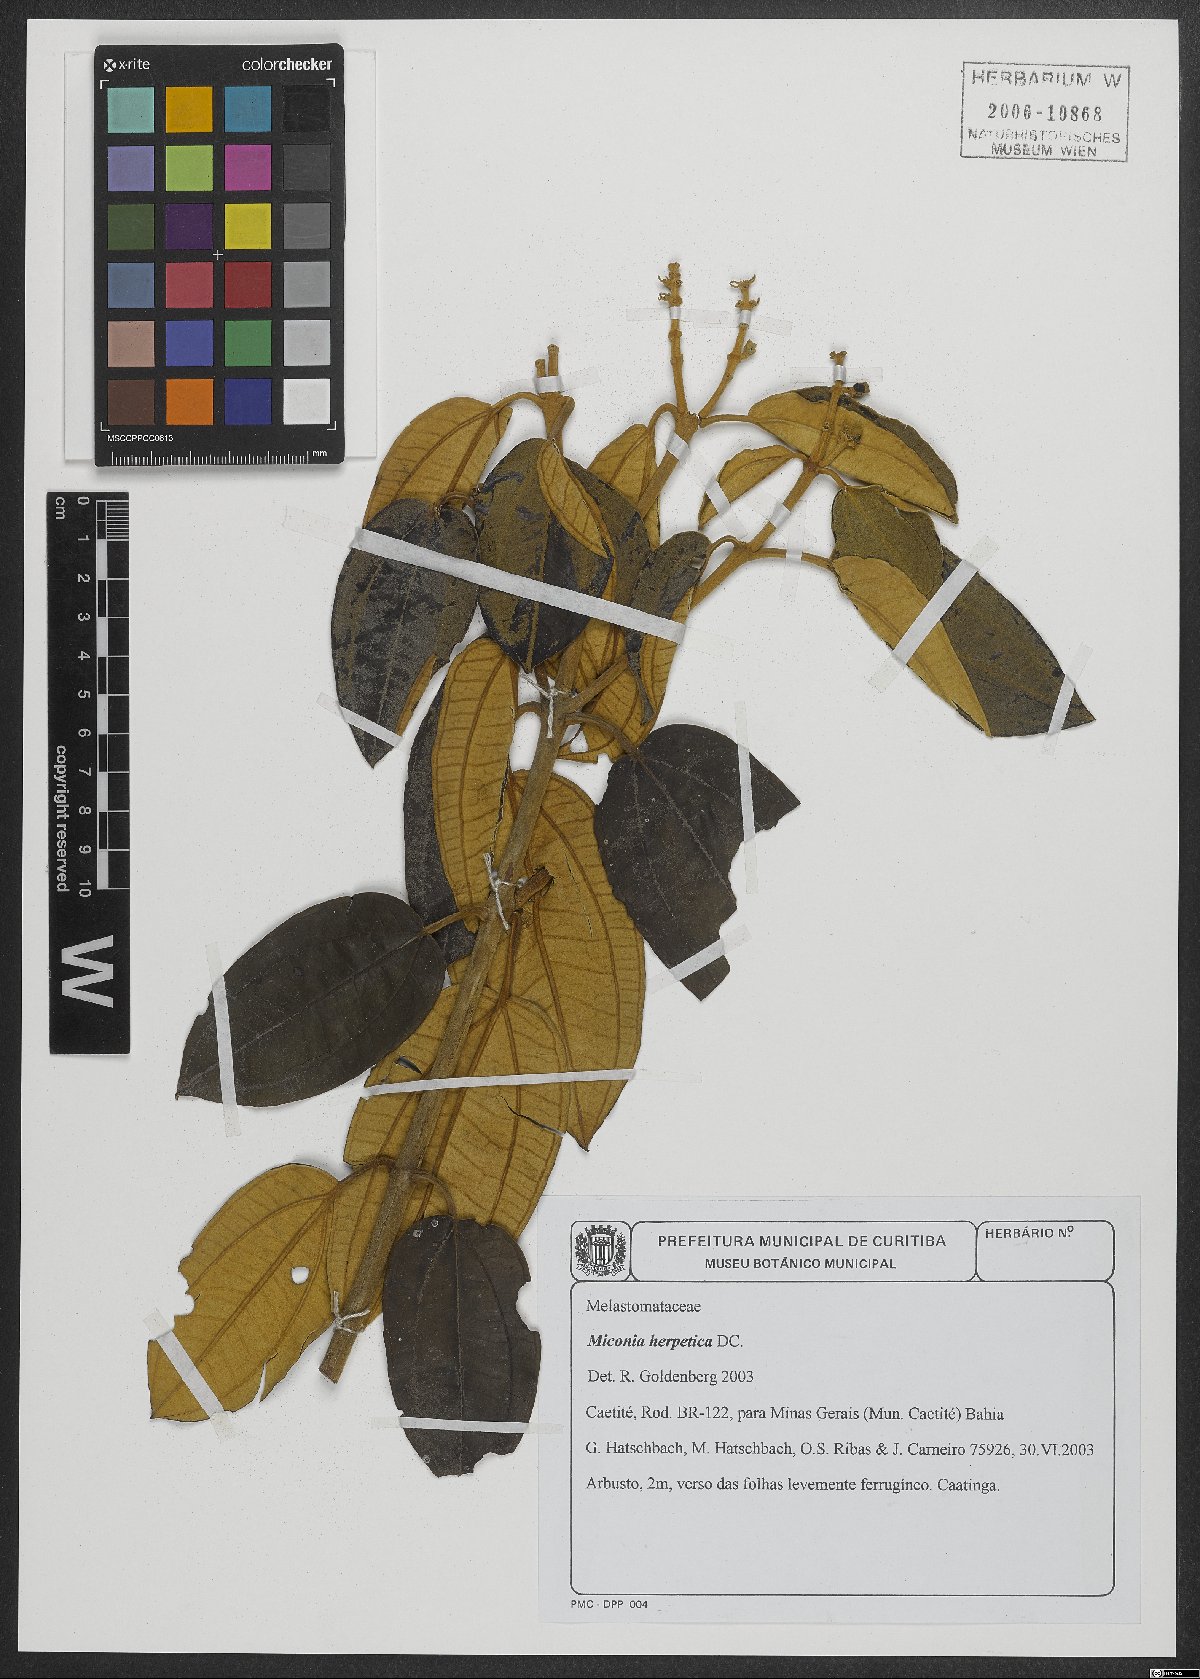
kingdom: Plantae
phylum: Tracheophyta
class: Magnoliopsida
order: Myrtales
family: Melastomataceae
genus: Miconia
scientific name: Miconia herpetica
